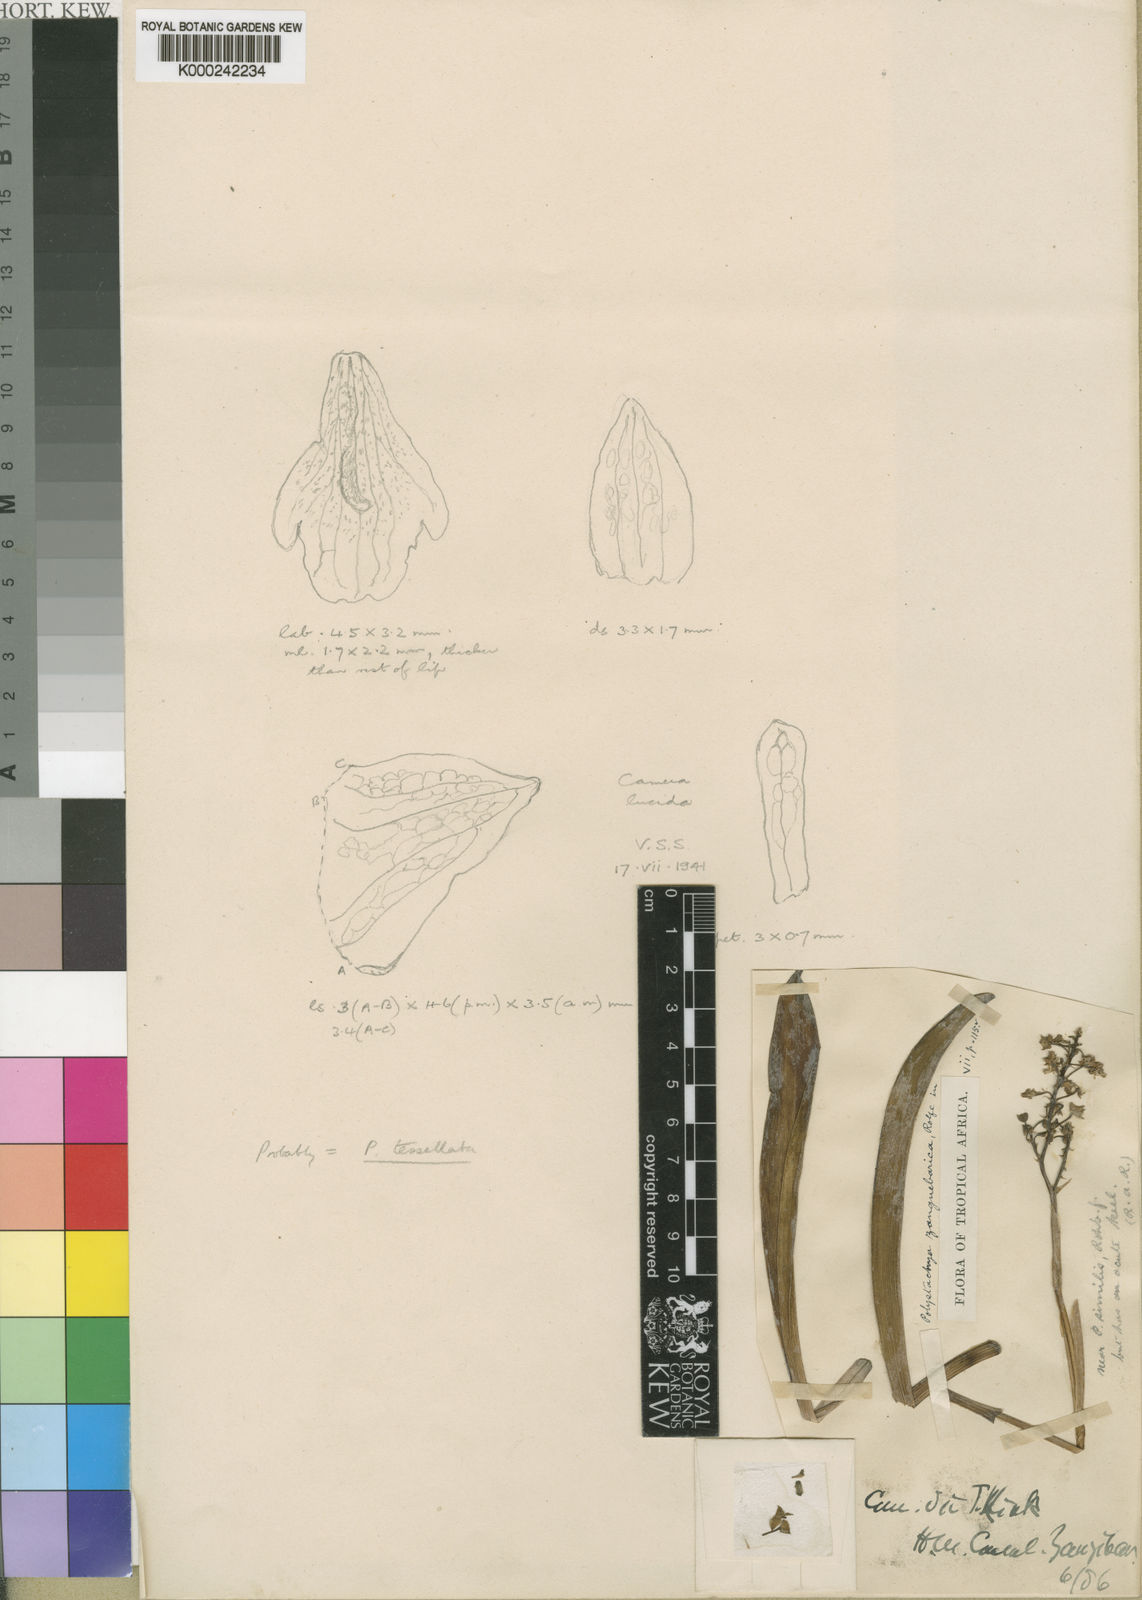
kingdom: Plantae
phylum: Tracheophyta
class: Liliopsida
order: Asparagales
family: Orchidaceae
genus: Polystachya
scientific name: Polystachya concreta
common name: Greater yellowspike orchid
